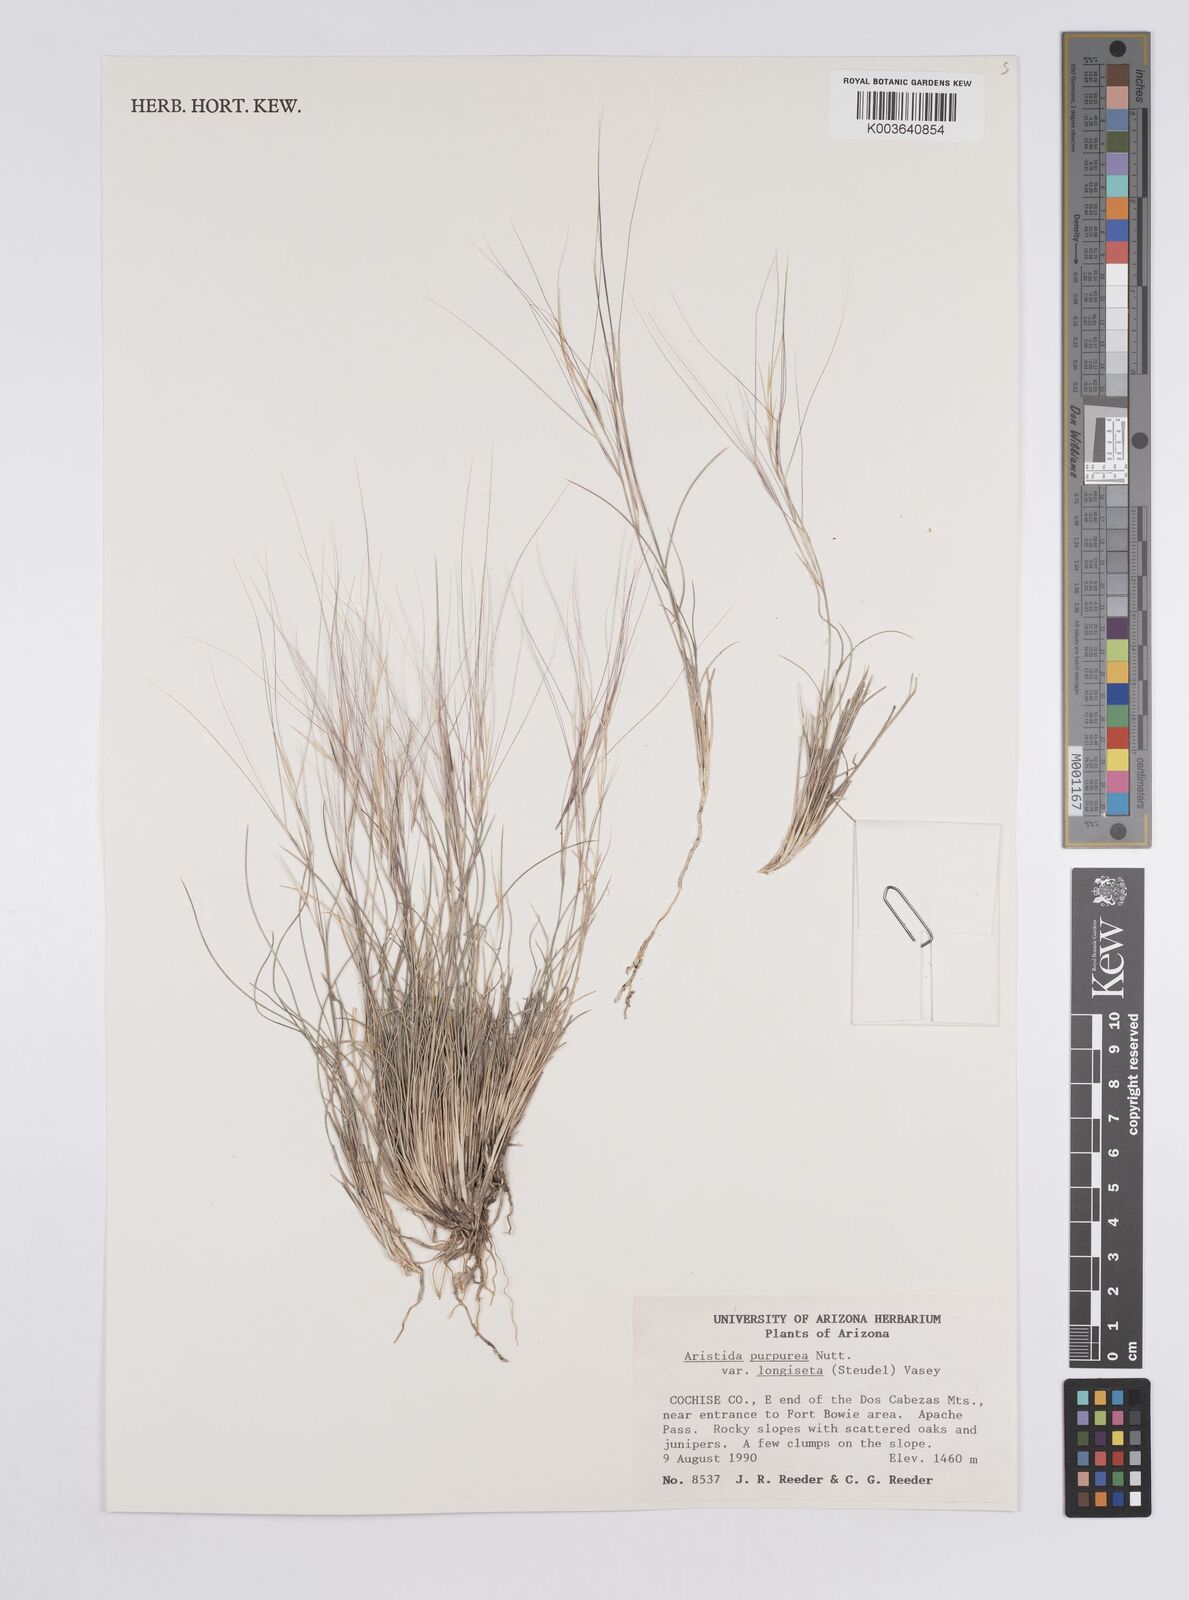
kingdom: Plantae
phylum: Tracheophyta
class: Liliopsida
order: Poales
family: Poaceae
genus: Aristida
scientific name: Aristida purpurea
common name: Purple threeawn
